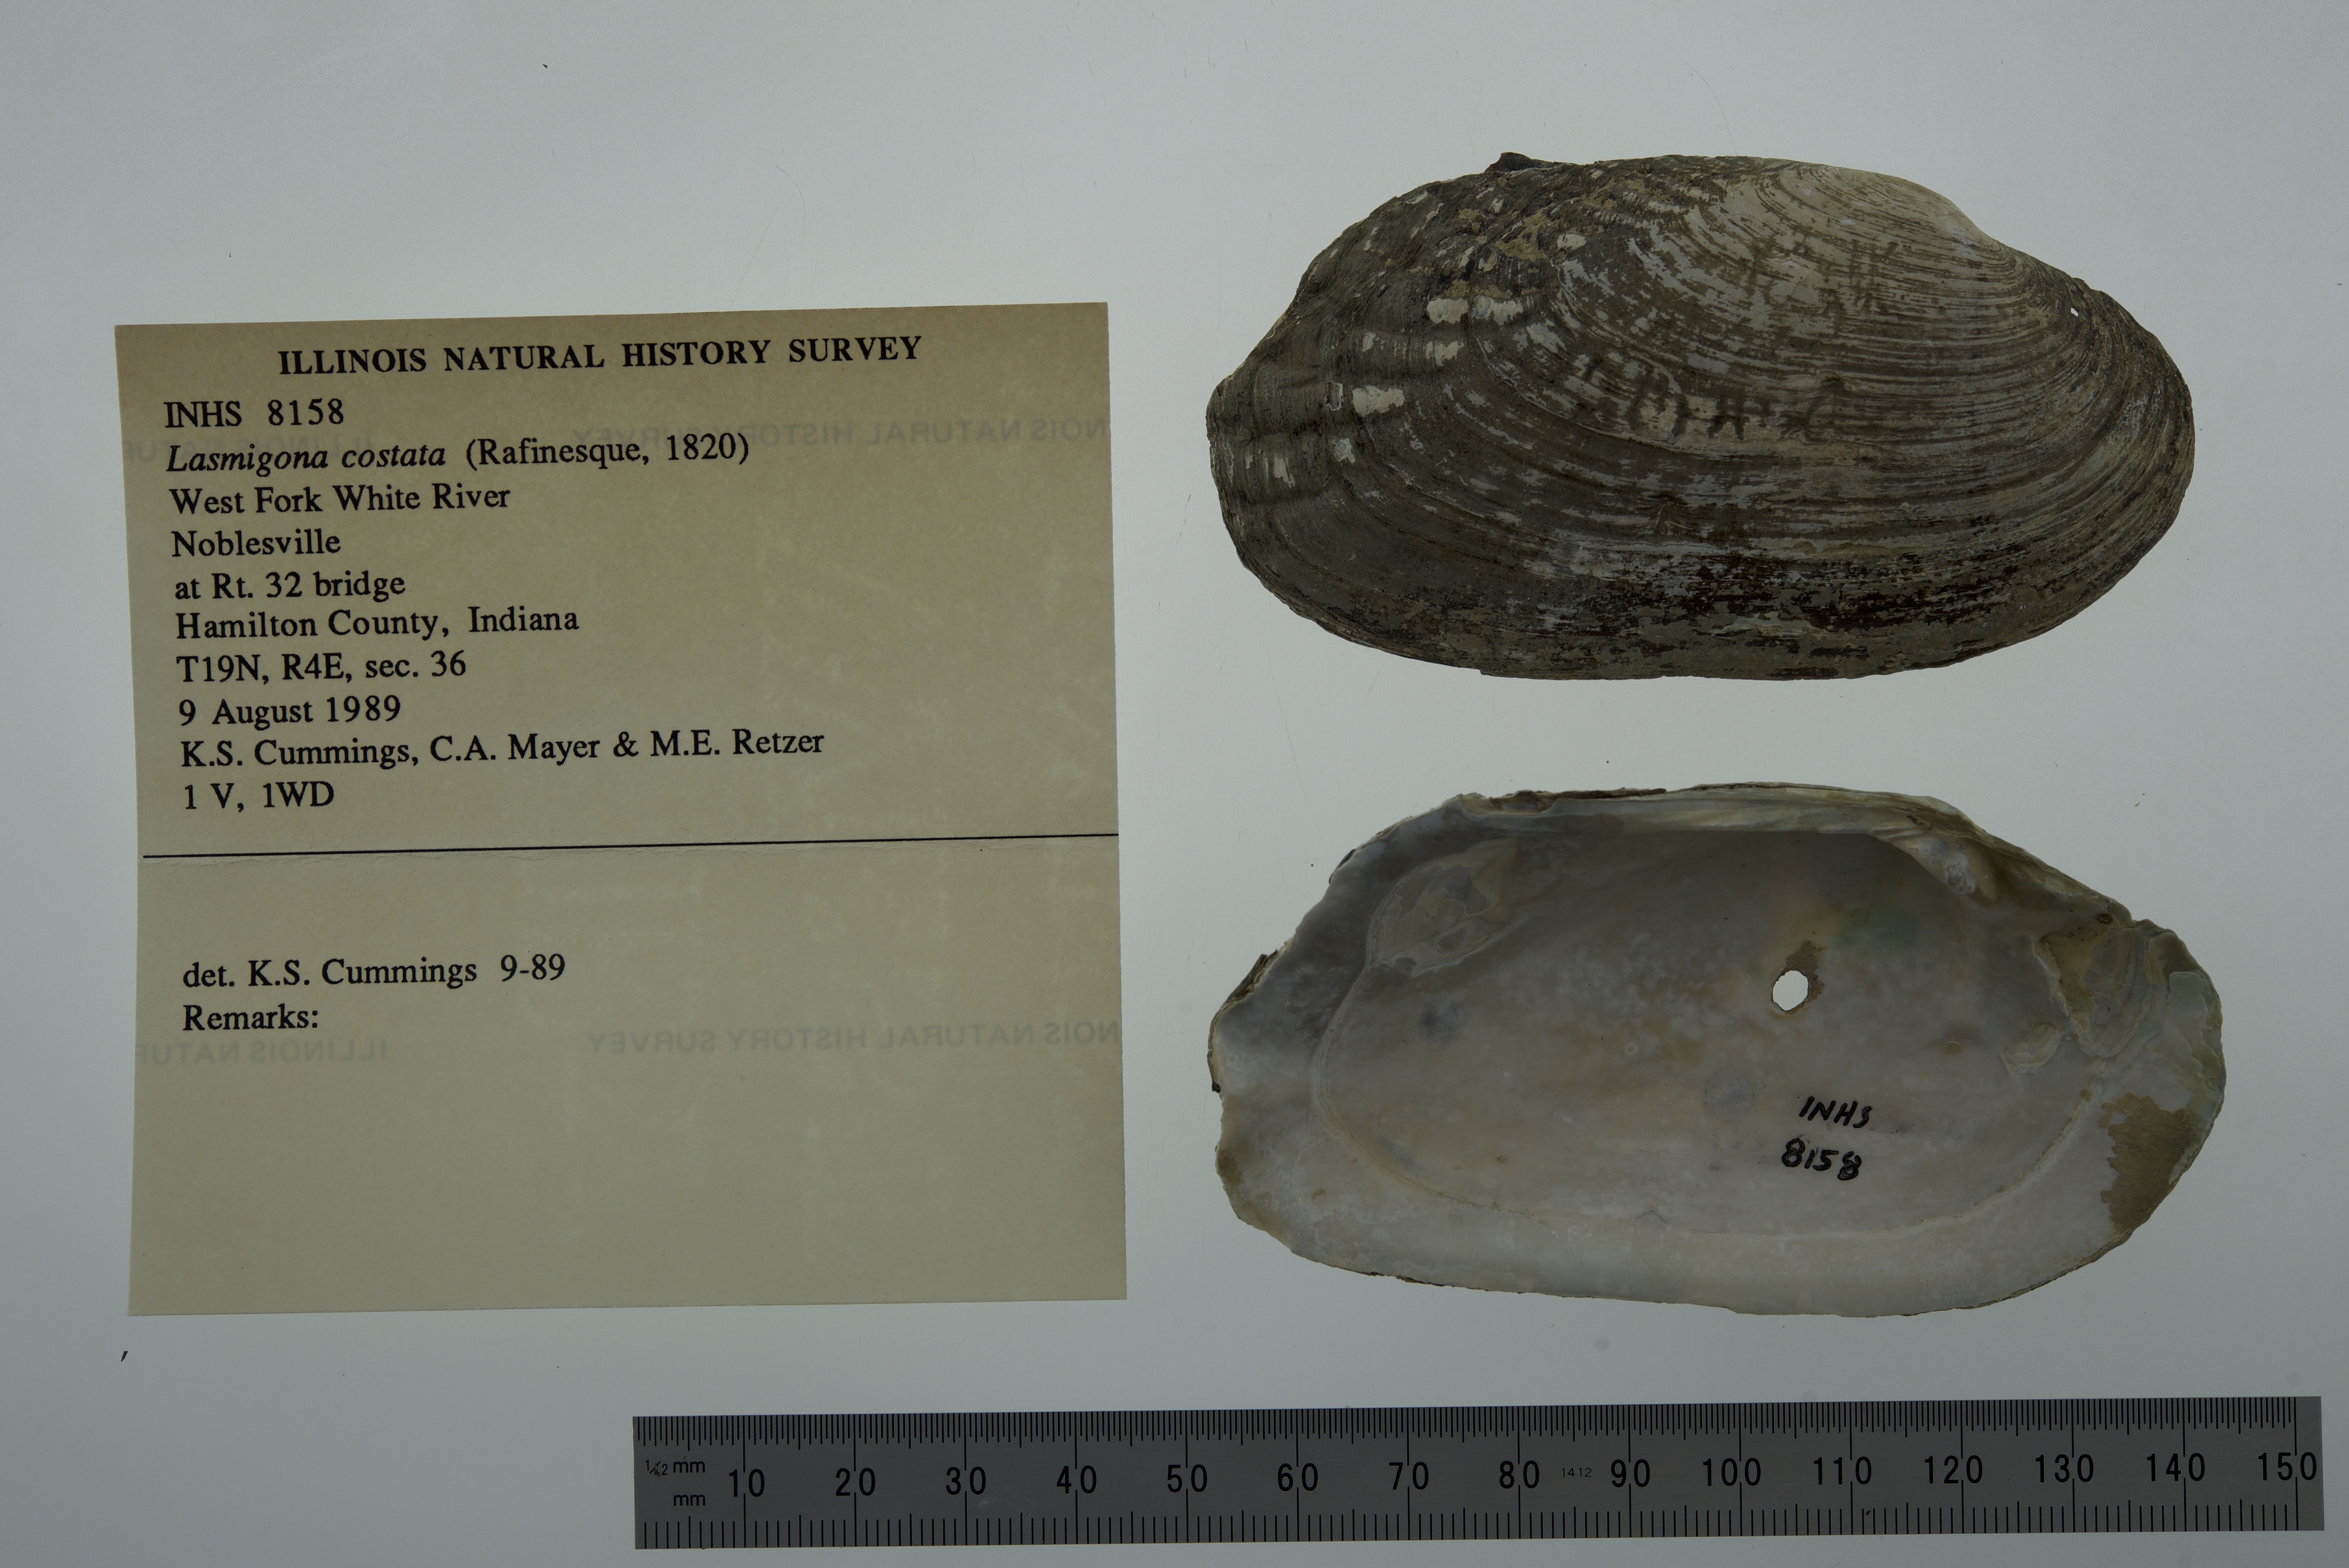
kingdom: Animalia
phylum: Mollusca
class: Bivalvia
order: Unionida
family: Unionidae
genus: Lasmigona
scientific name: Lasmigona costata
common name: Flutedshell
